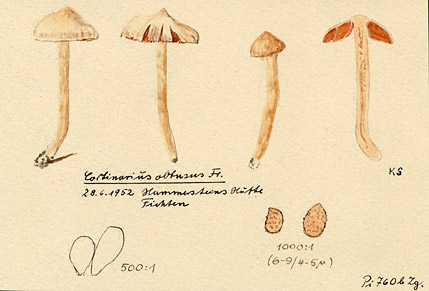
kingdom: Fungi
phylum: Basidiomycota
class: Agaricomycetes
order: Agaricales
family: Cortinariaceae
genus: Cortinarius
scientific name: Cortinarius obtusus
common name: Blunt webcap
